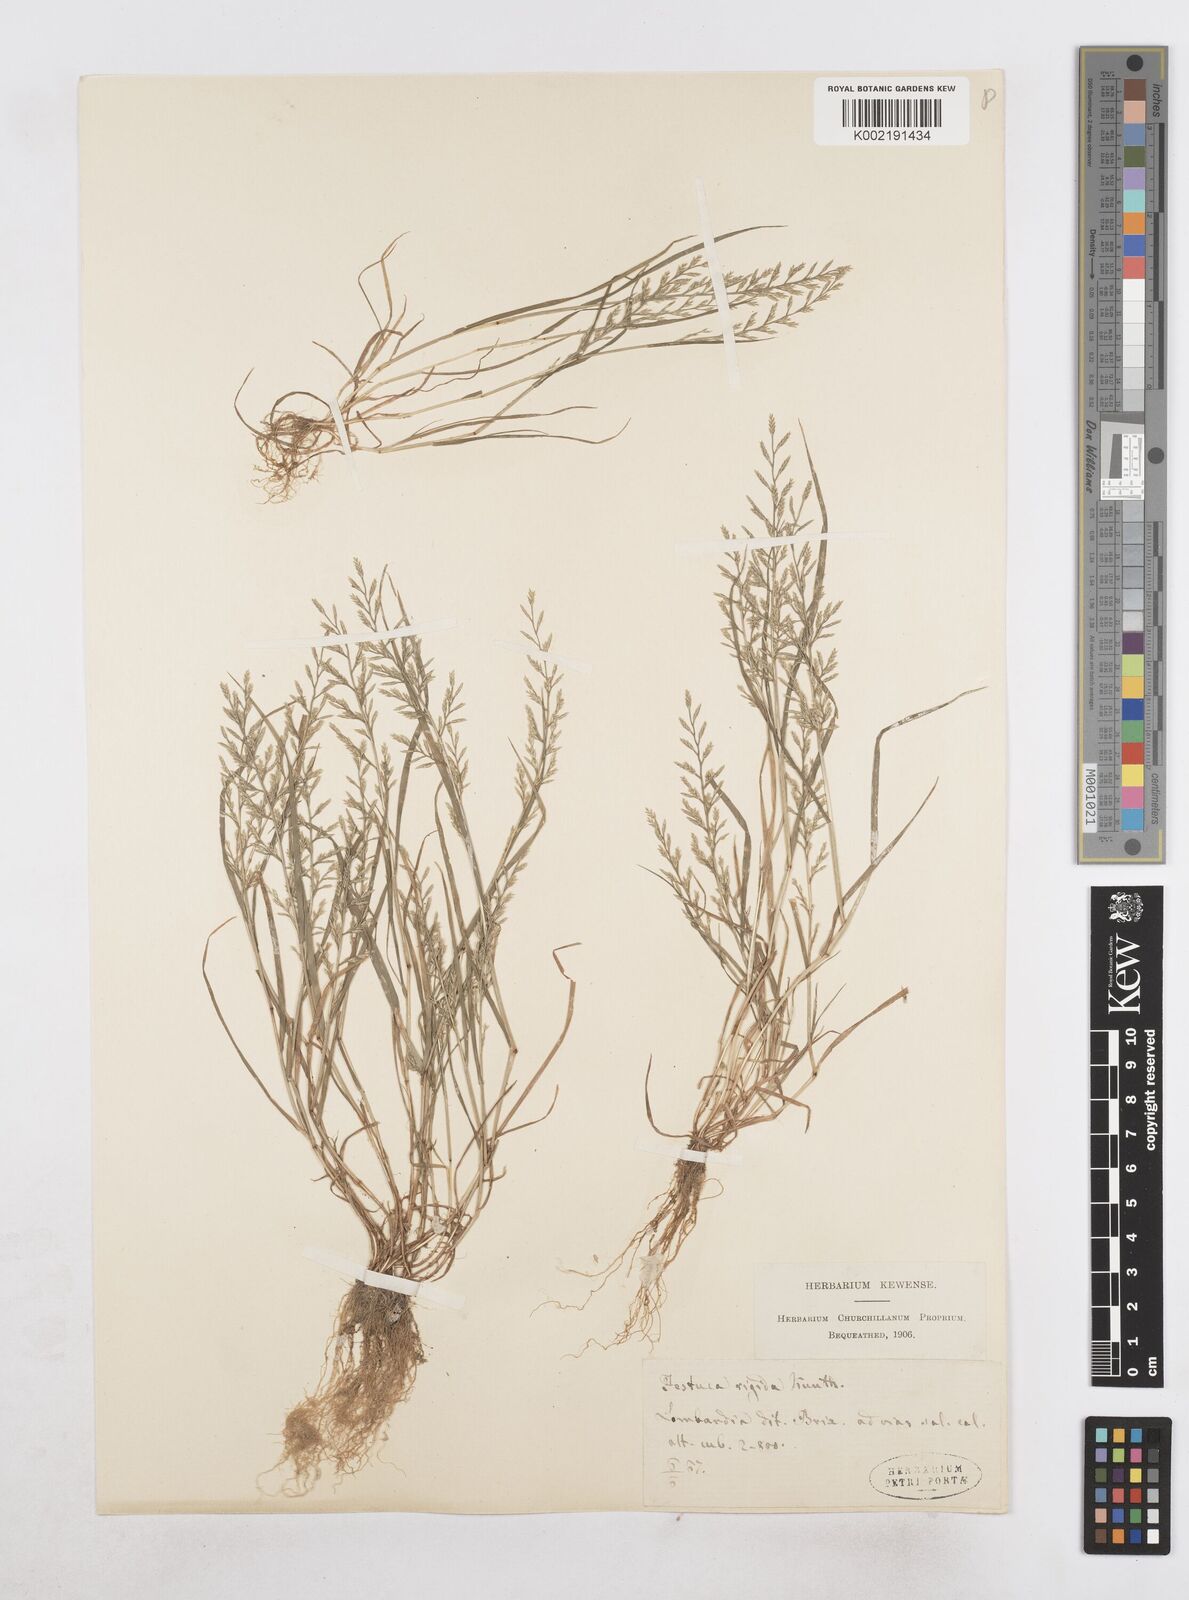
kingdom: Plantae
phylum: Tracheophyta
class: Liliopsida
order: Poales
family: Poaceae
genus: Catapodium
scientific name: Catapodium rigidum
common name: Fern-grass
